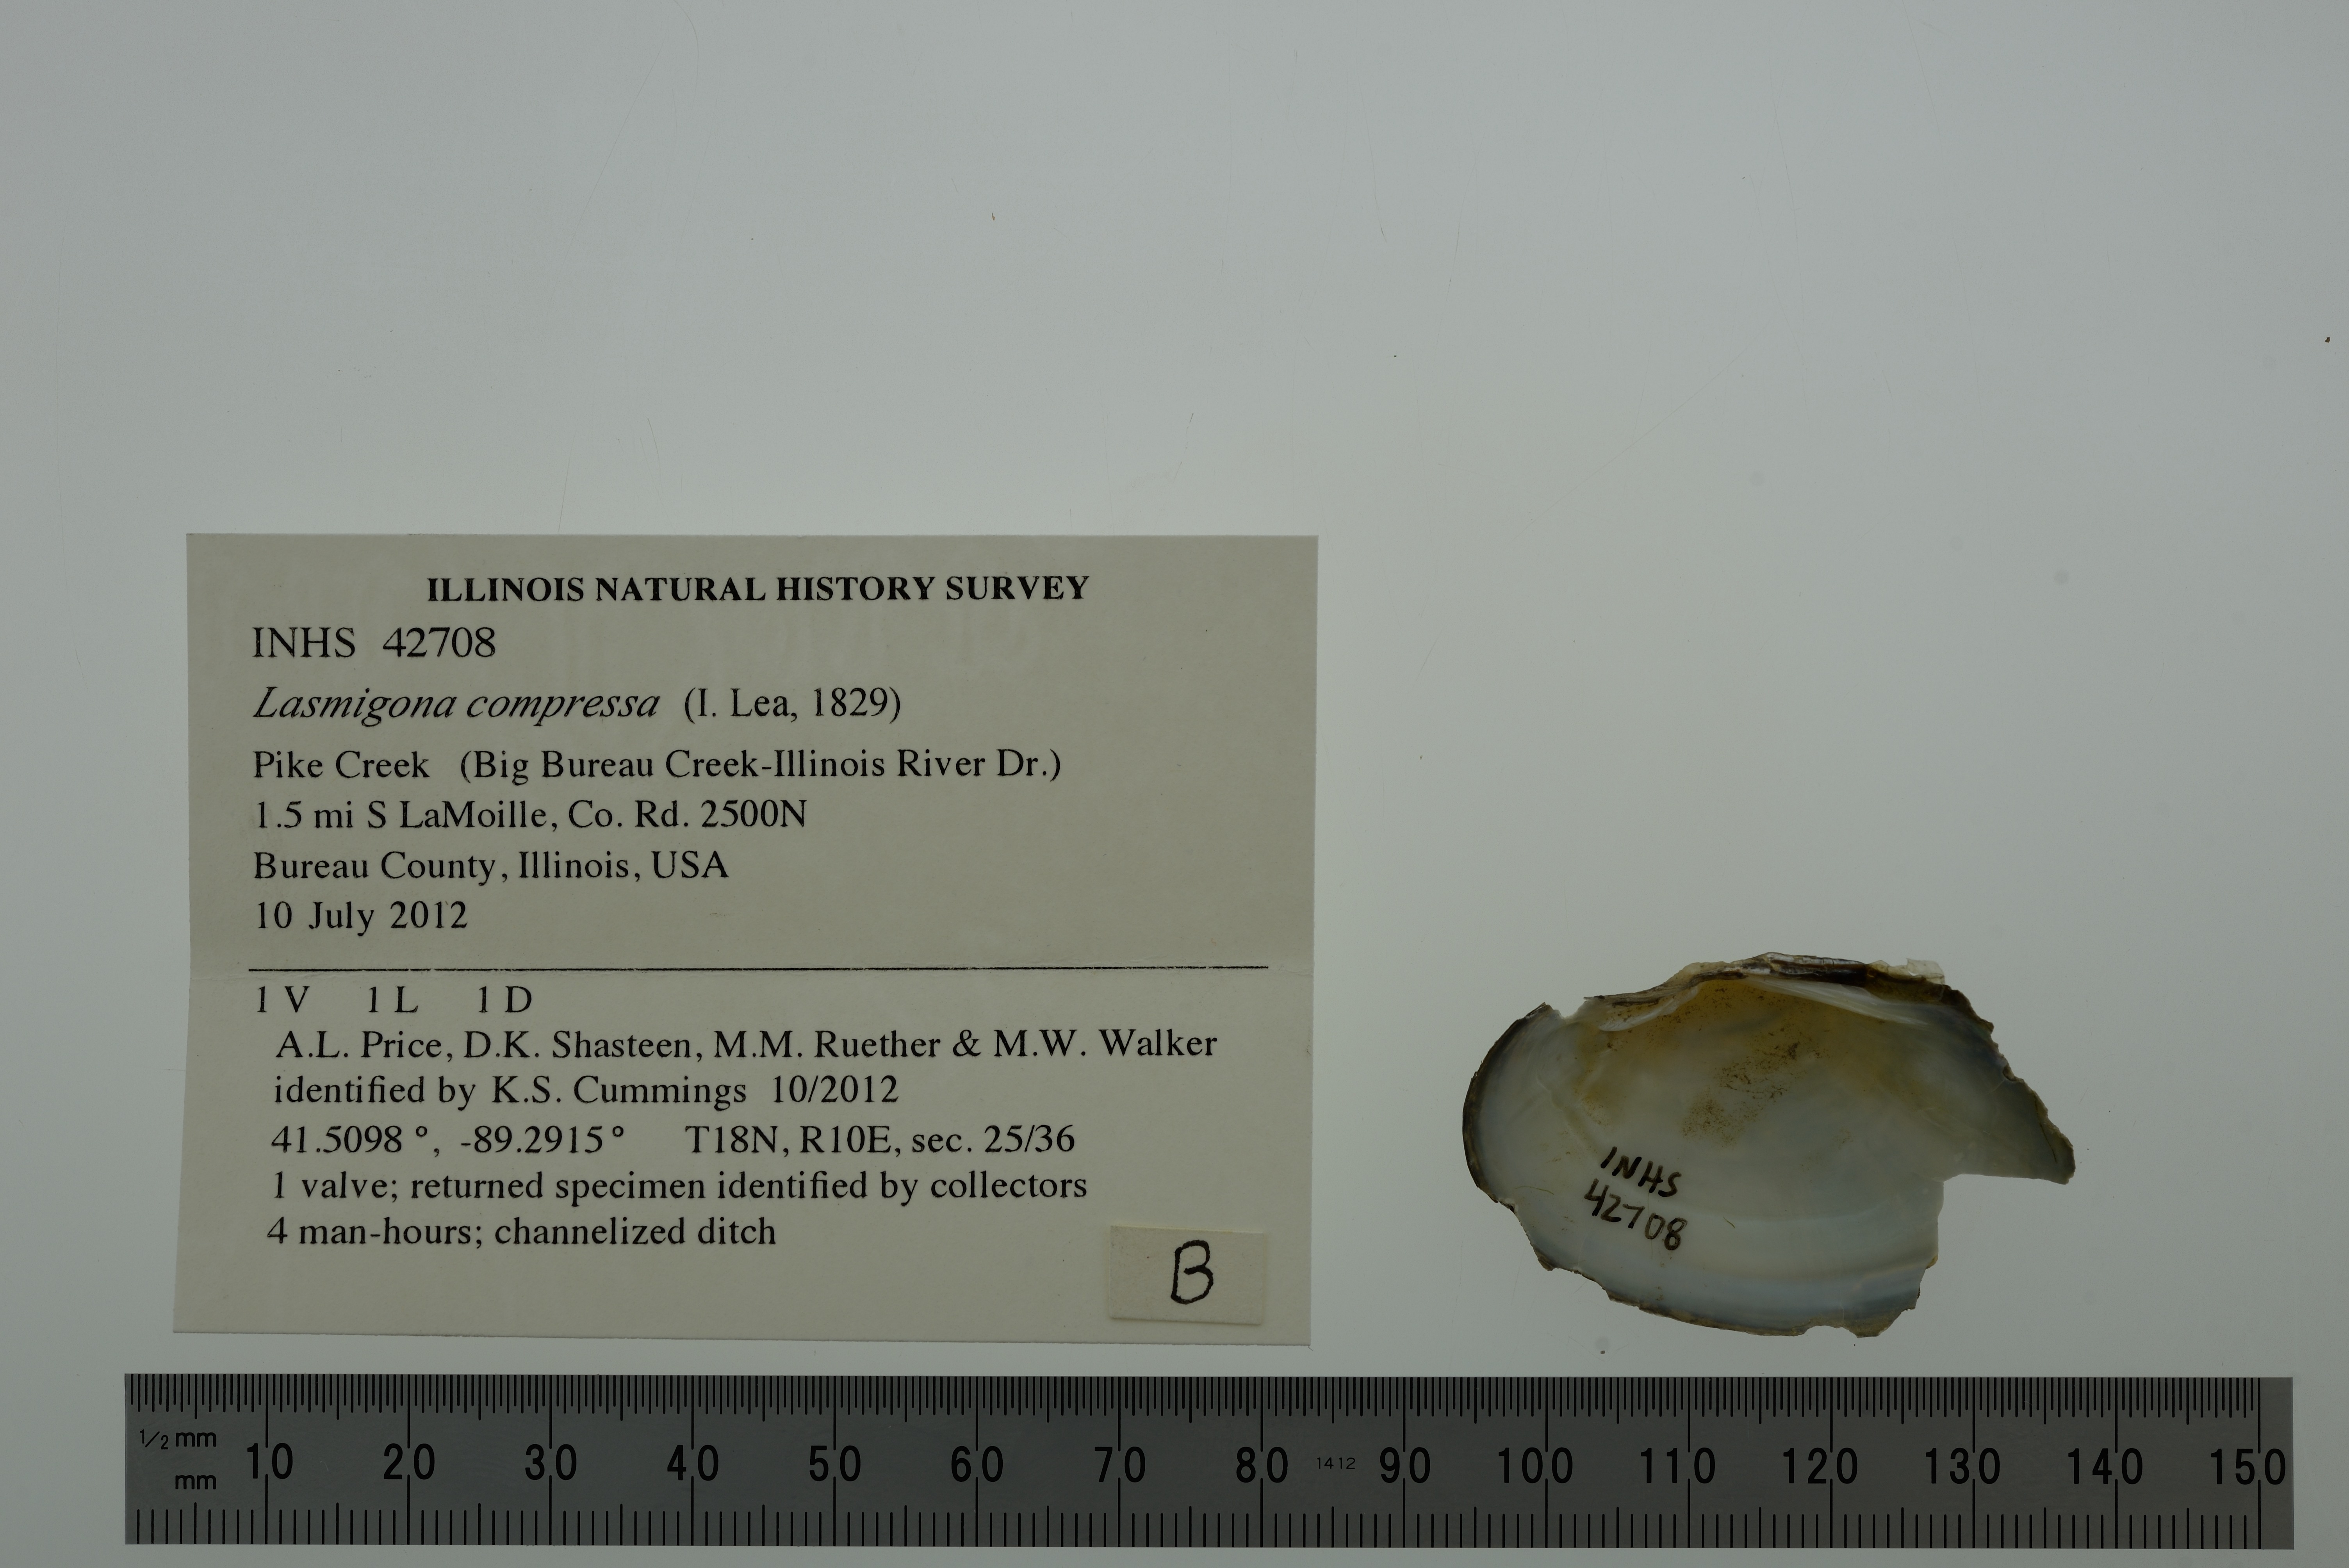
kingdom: Animalia
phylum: Mollusca
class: Bivalvia
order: Unionida
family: Unionidae
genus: Lasmigona
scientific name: Lasmigona compressa
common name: Creek heelsplitter
